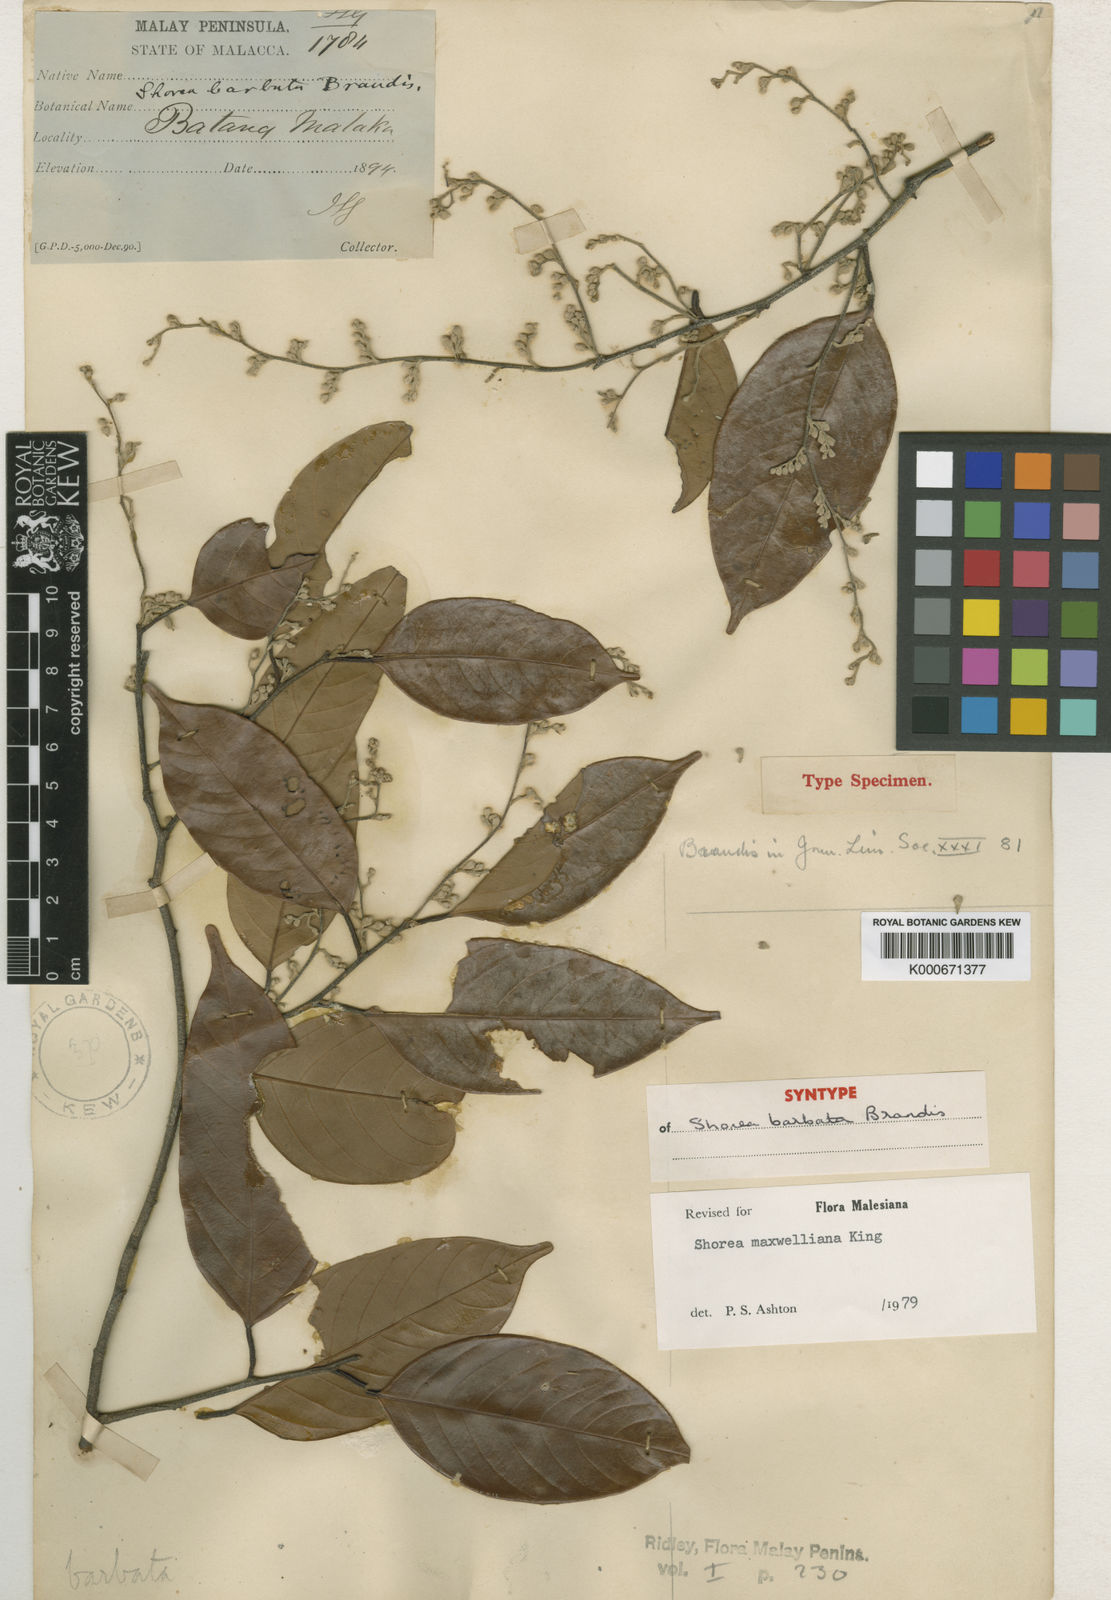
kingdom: Plantae
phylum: Tracheophyta
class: Magnoliopsida
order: Malvales
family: Dipterocarpaceae
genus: Shorea
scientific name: Shorea maxwelliana
